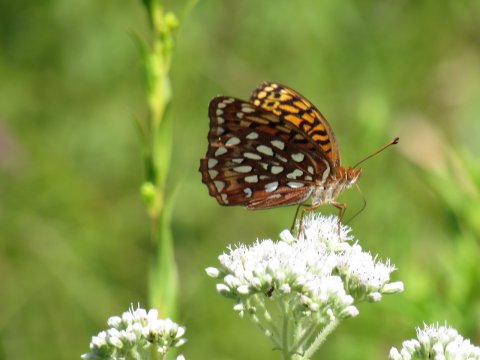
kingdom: Animalia
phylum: Arthropoda
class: Insecta
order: Lepidoptera
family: Nymphalidae
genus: Speyeria
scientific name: Speyeria aphrodite
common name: Aphrodite Fritillary
